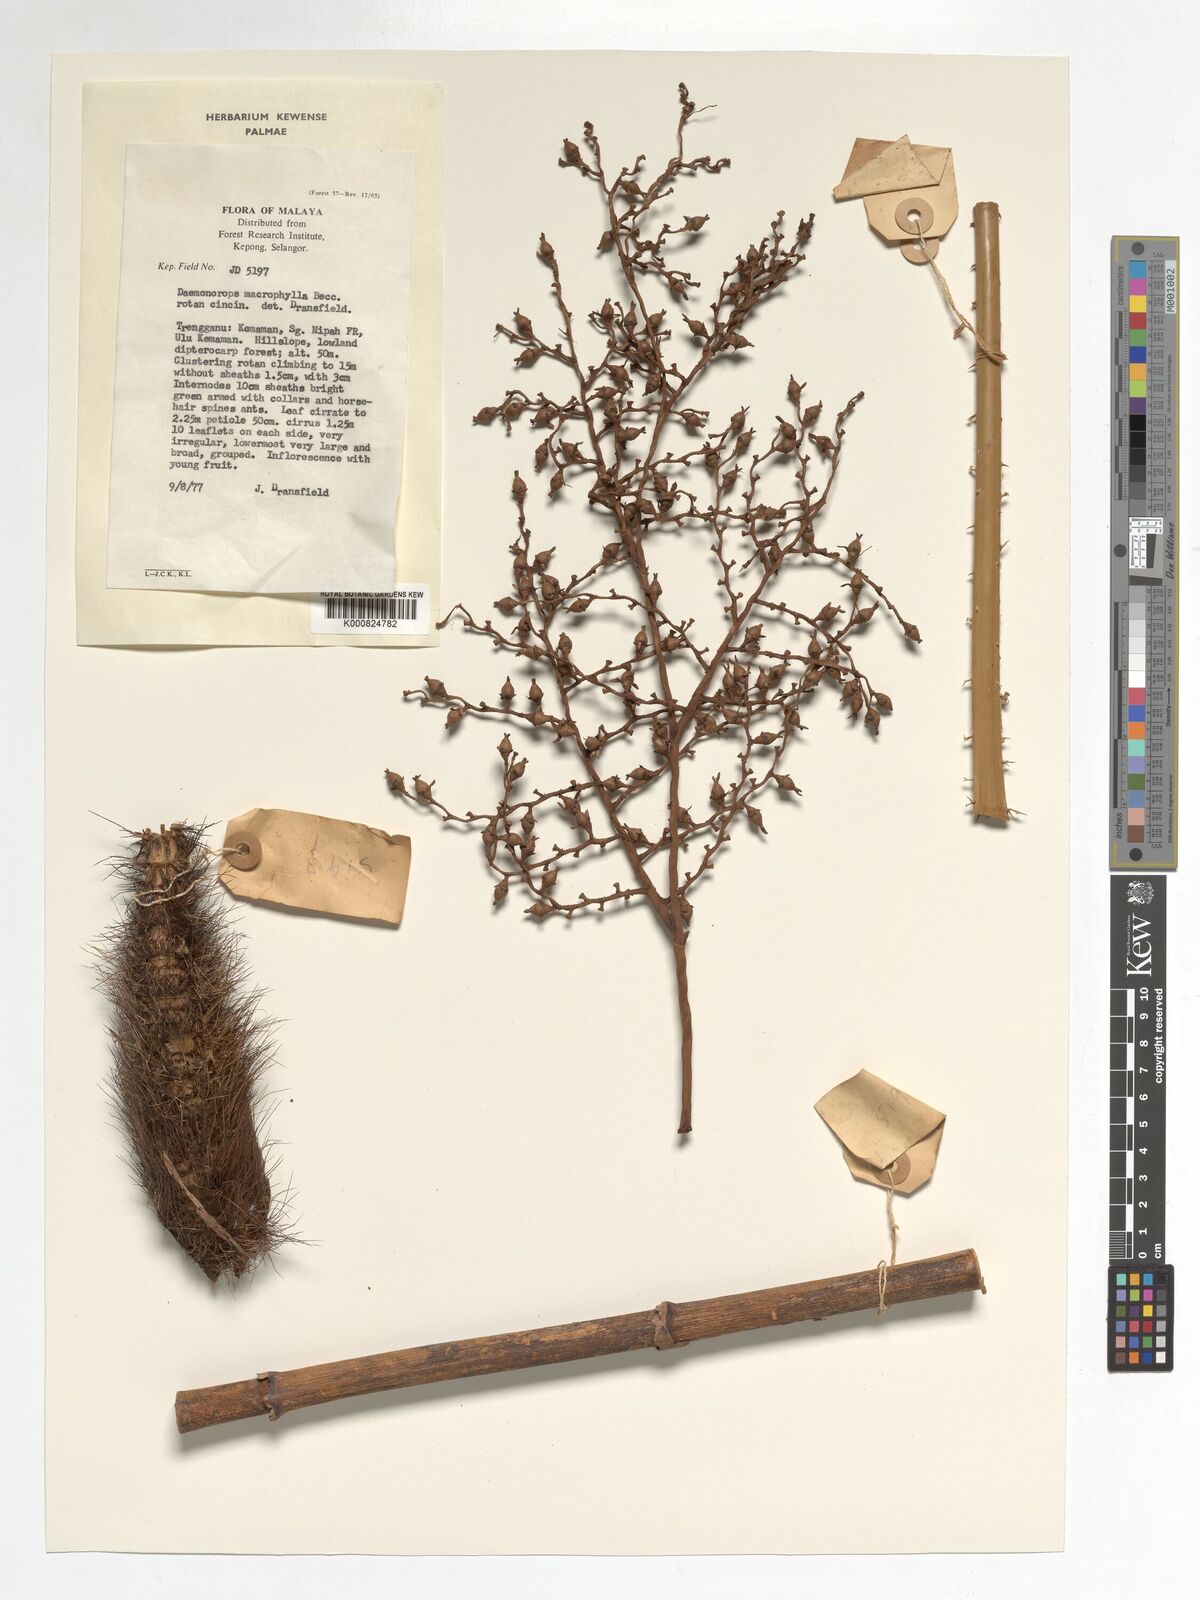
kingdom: Plantae
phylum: Tracheophyta
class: Liliopsida
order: Arecales
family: Arecaceae
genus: Calamus
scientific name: Calamus crinitus
